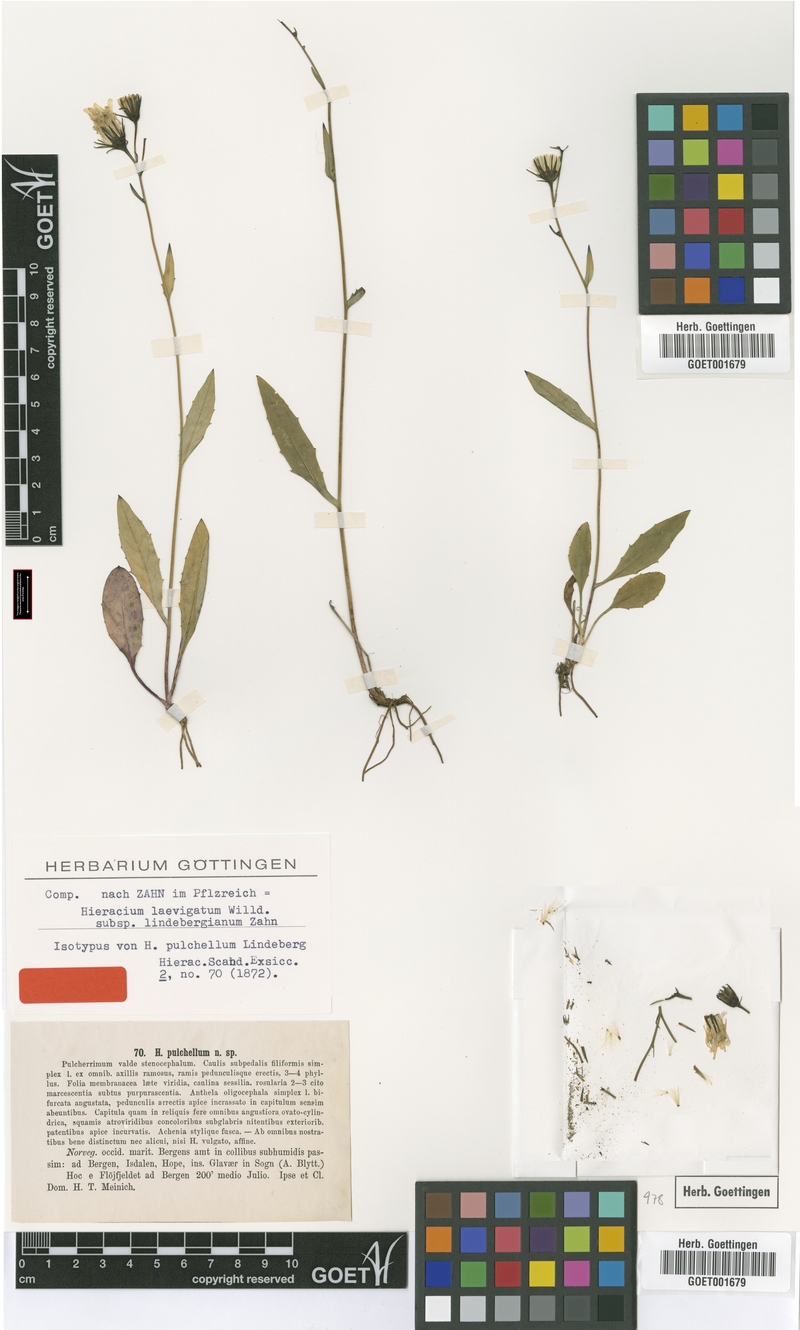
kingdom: Plantae
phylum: Tracheophyta
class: Magnoliopsida
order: Asterales
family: Asteraceae
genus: Hieracium
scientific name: Hieracium laevigatum
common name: Smooth hawkweed
